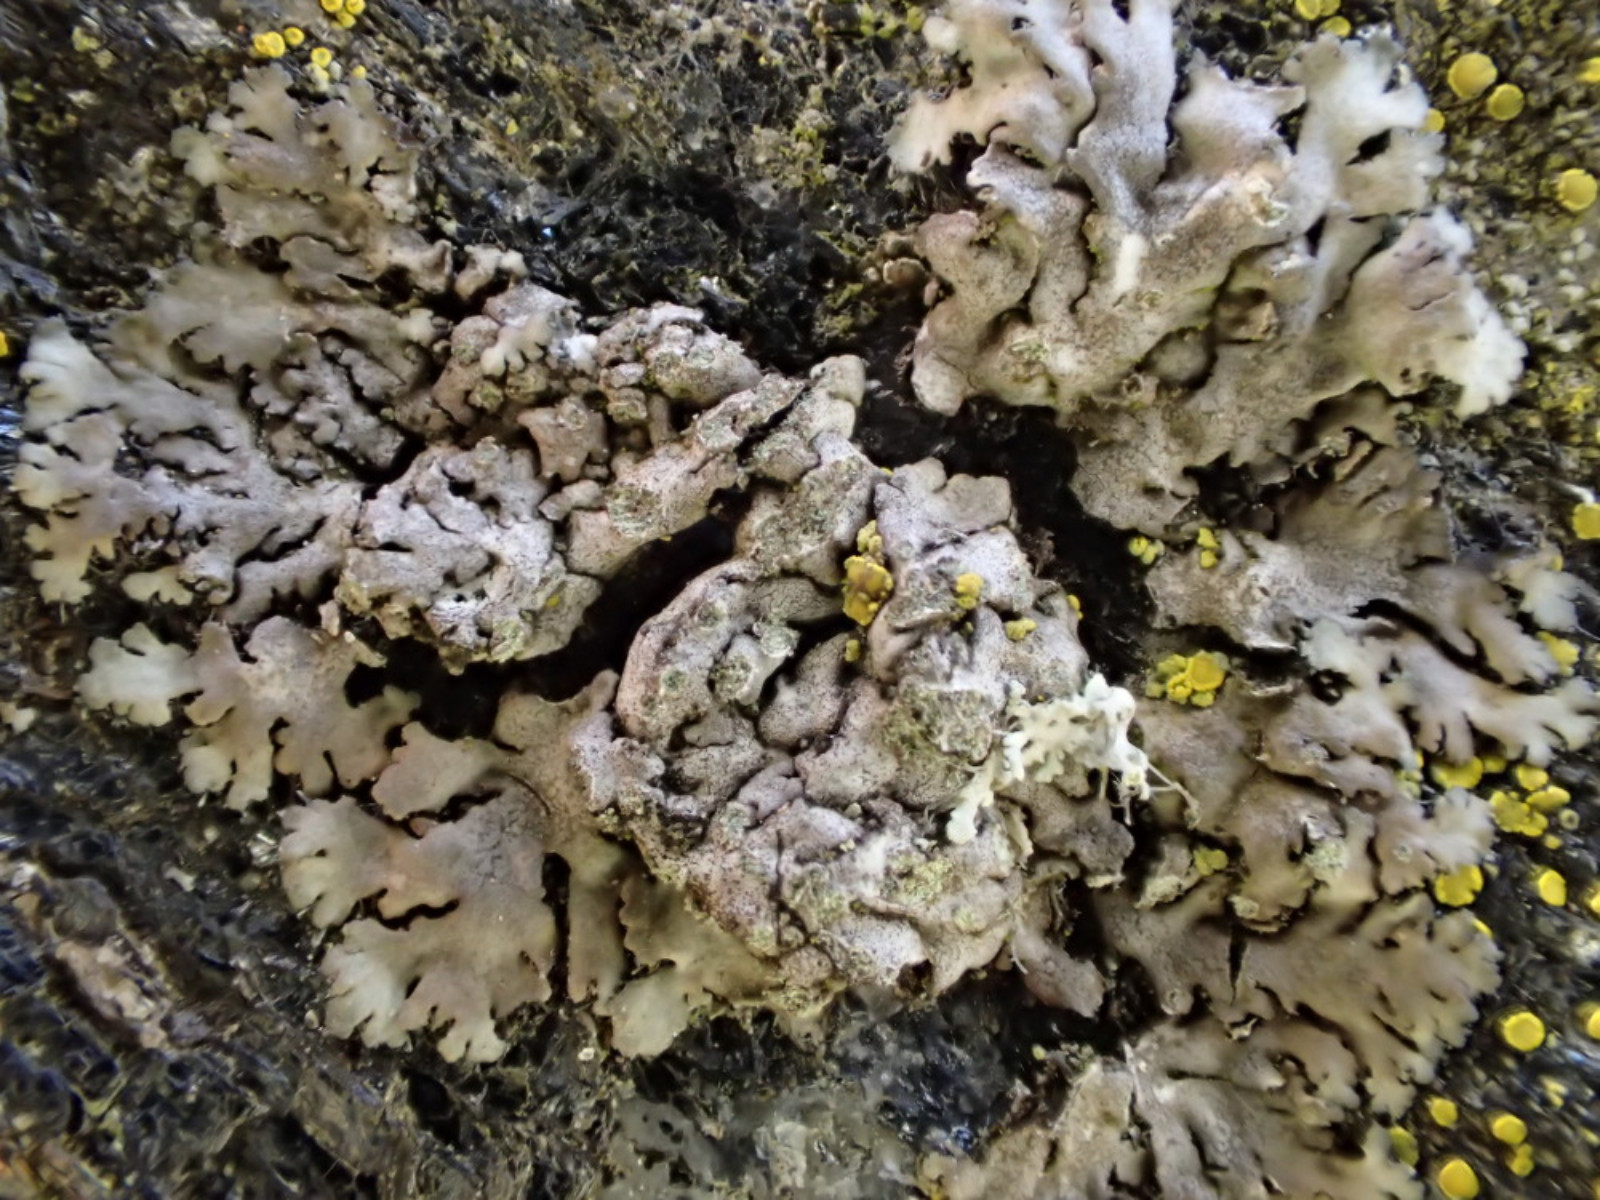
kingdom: Fungi
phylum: Ascomycota
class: Lecanoromycetes
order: Caliciales
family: Physciaceae
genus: Phaeophyscia
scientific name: Phaeophyscia orbicularis
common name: grågrøn rosetlav
